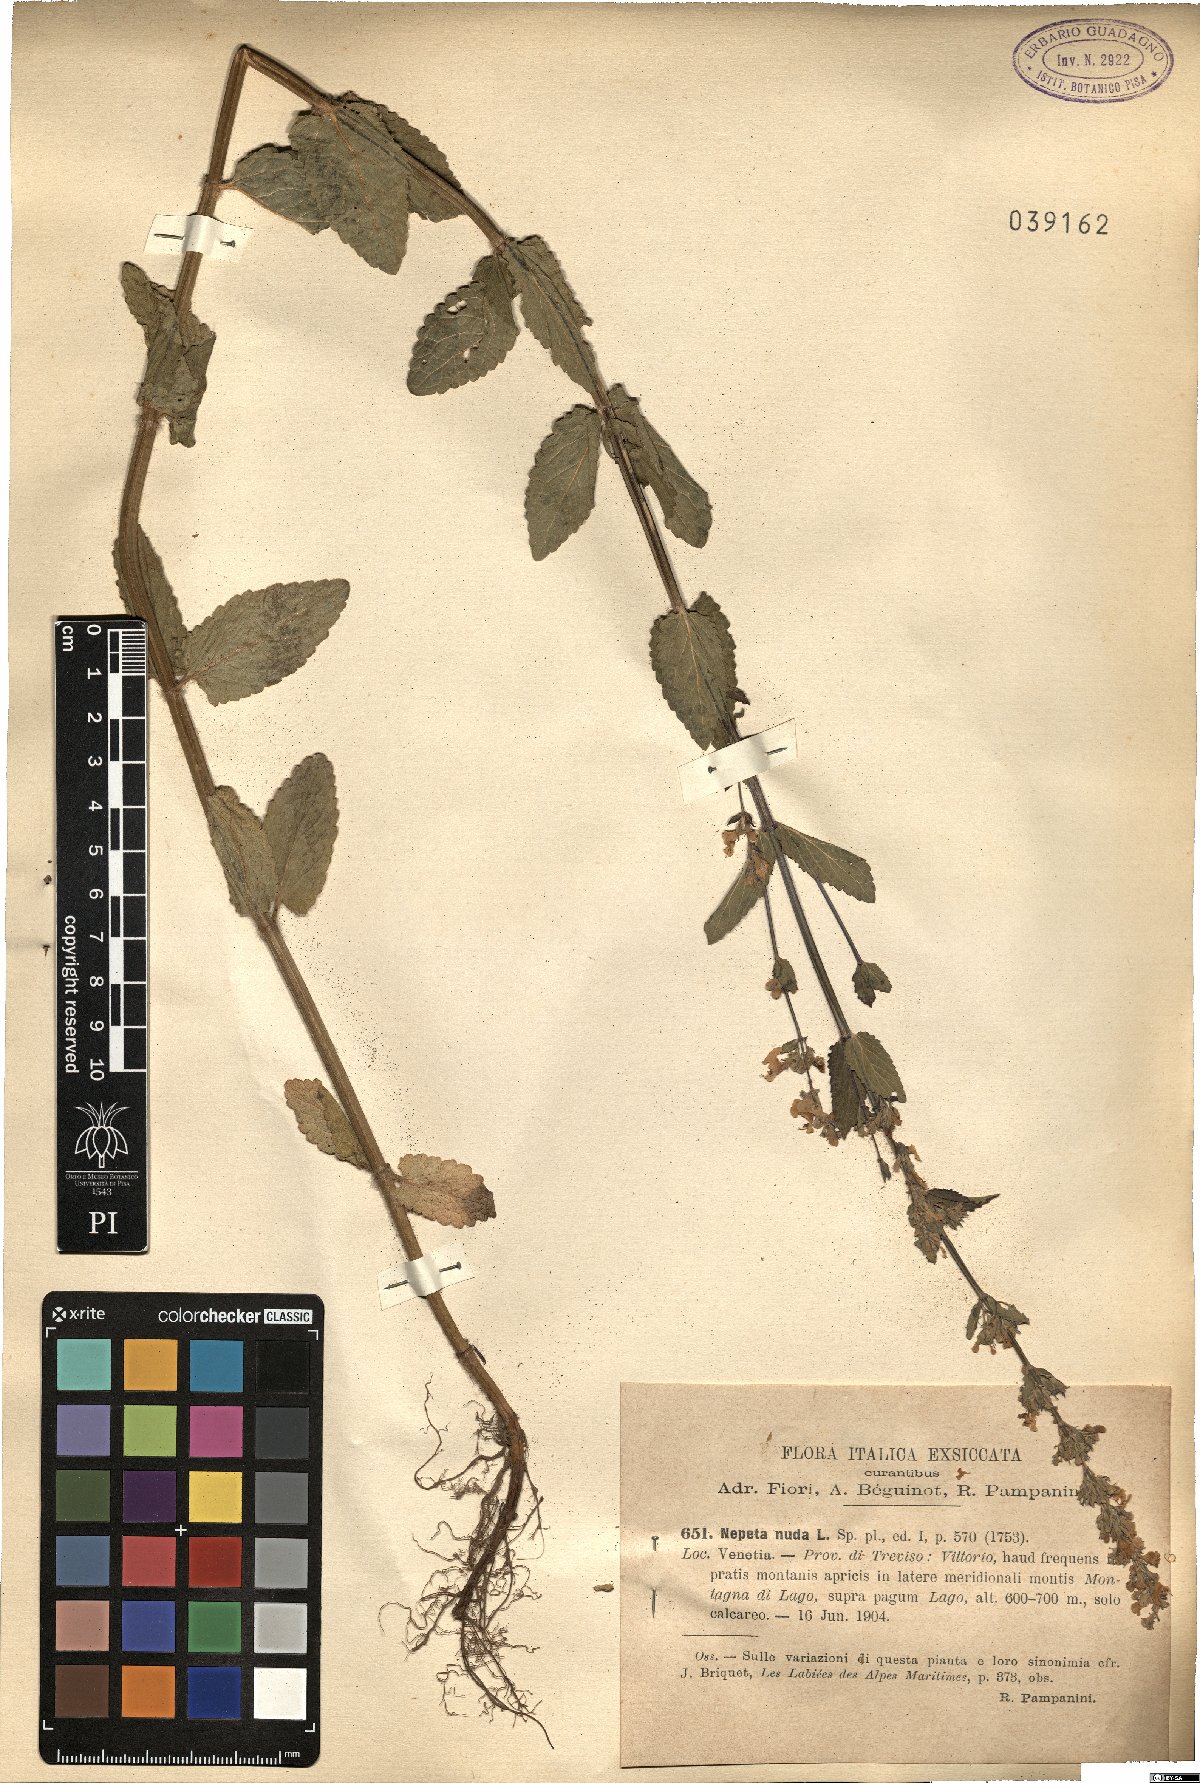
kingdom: Plantae
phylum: Tracheophyta
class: Magnoliopsida
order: Lamiales
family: Lamiaceae
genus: Nepeta
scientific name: Nepeta nuda
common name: Hairless catmint
